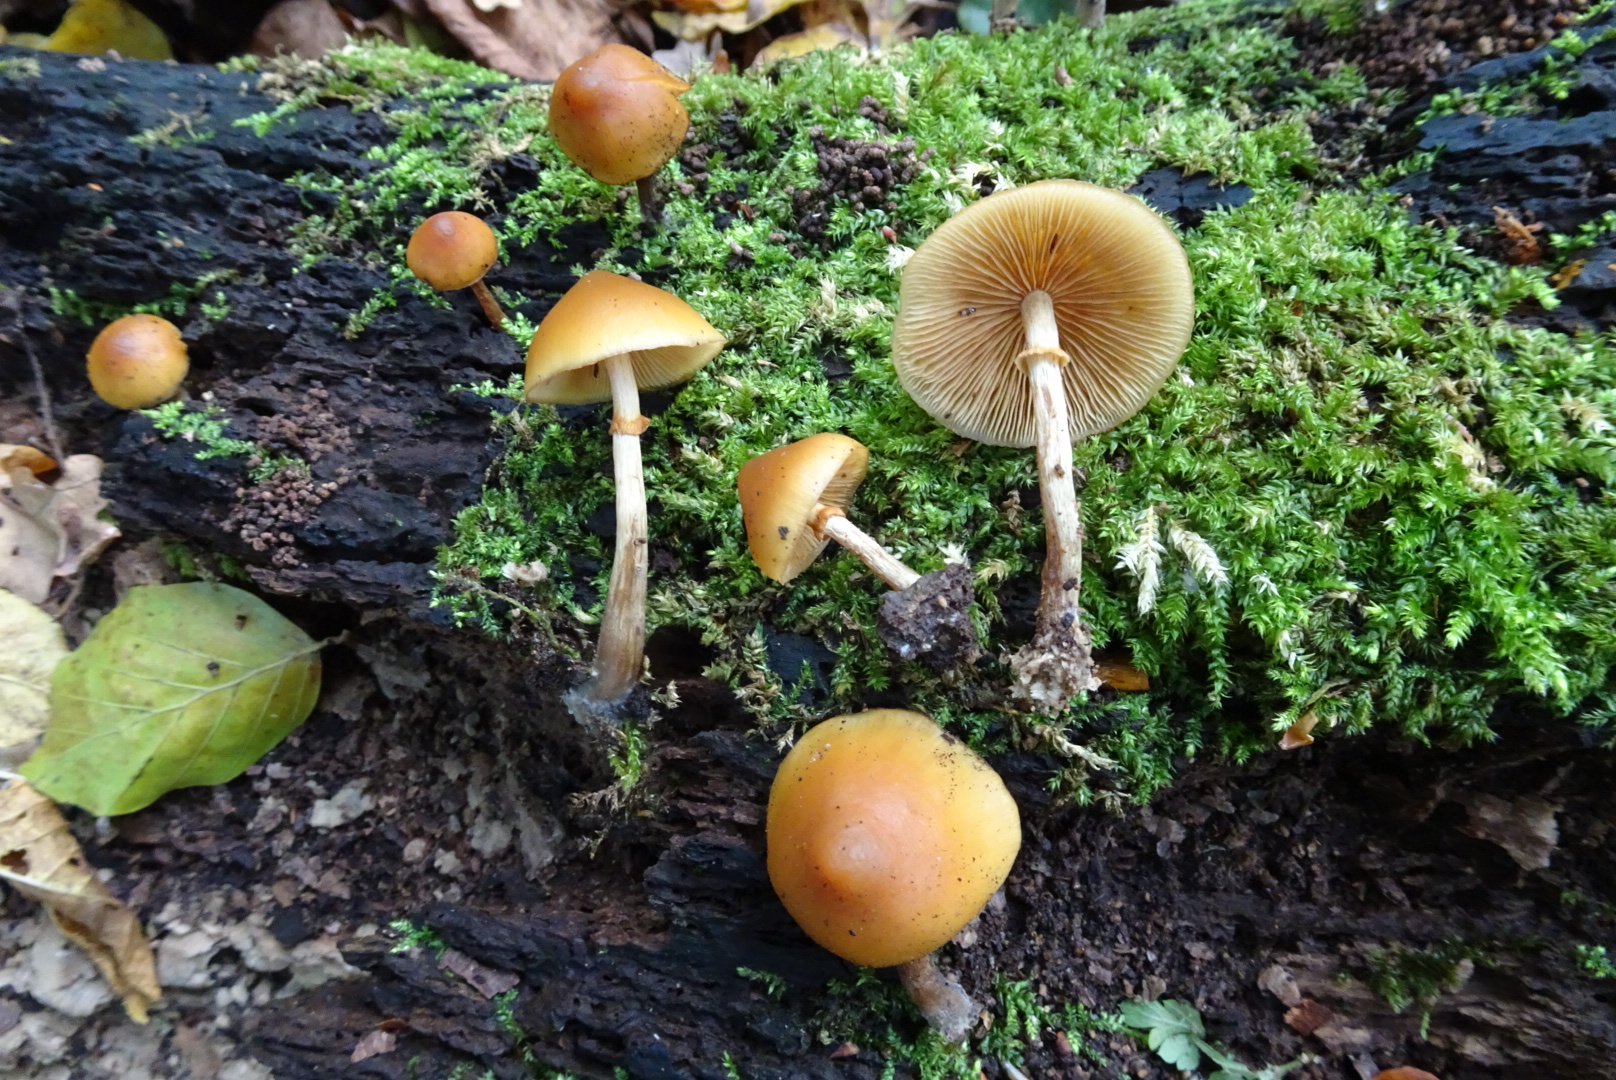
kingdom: Fungi
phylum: Basidiomycota
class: Agaricomycetes
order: Agaricales
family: Hymenogastraceae
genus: Galerina
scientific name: Galerina marginata
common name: randbæltet hjelmhat
